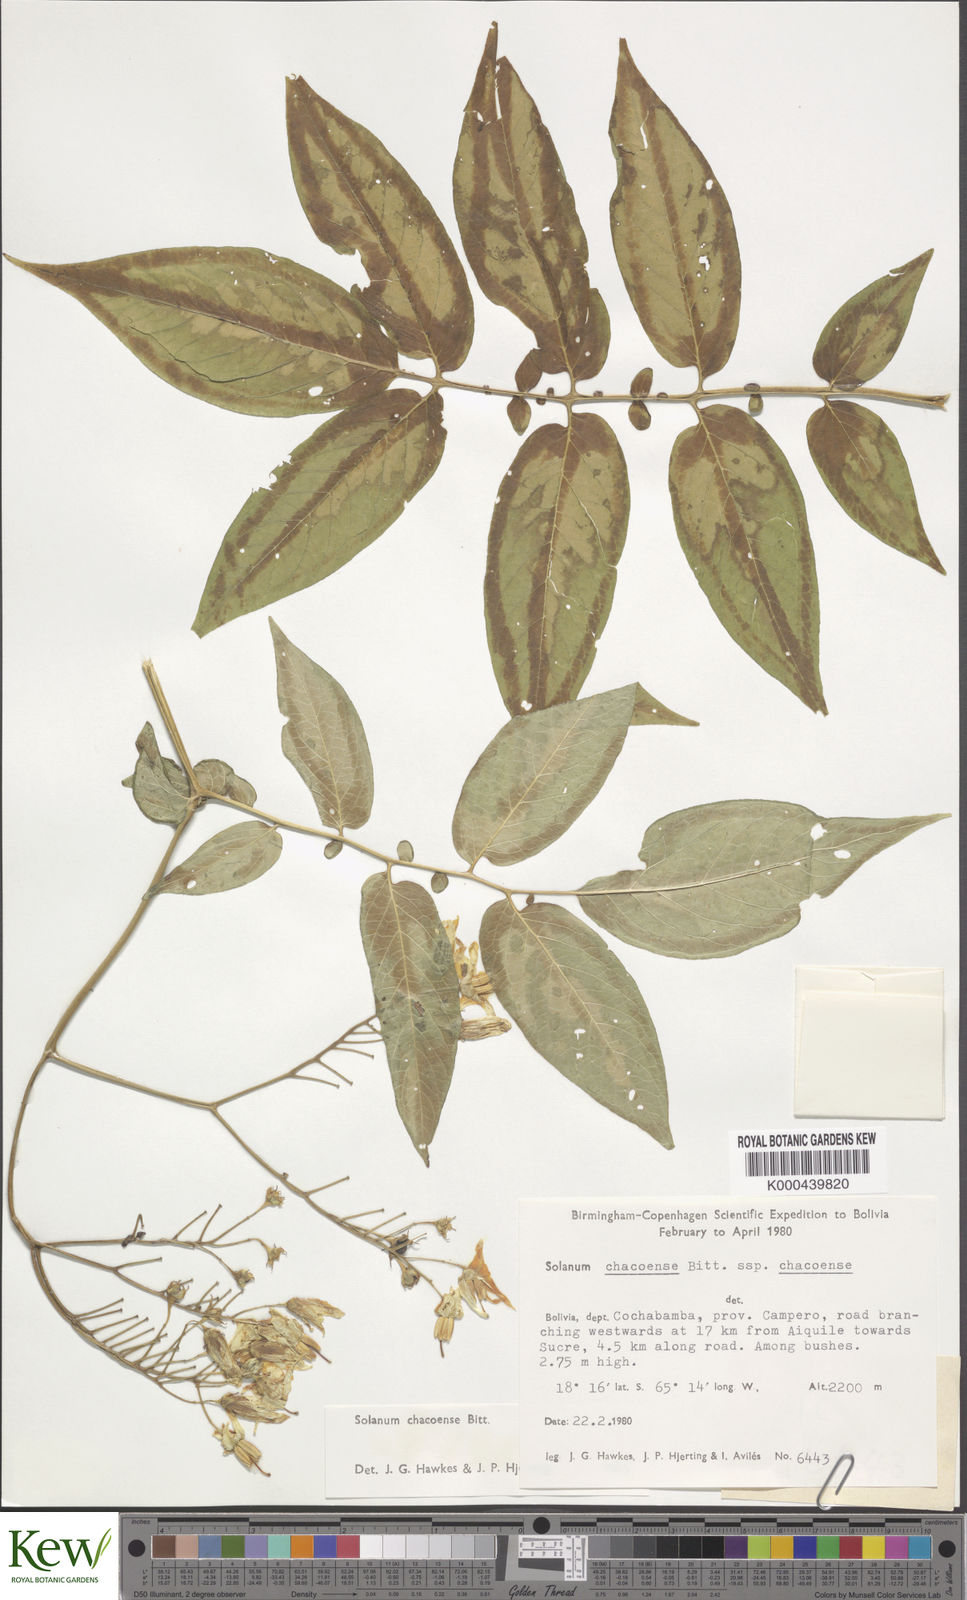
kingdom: Plantae
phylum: Tracheophyta
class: Magnoliopsida
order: Solanales
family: Solanaceae
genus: Solanum
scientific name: Solanum chacoense
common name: Chaco potato
